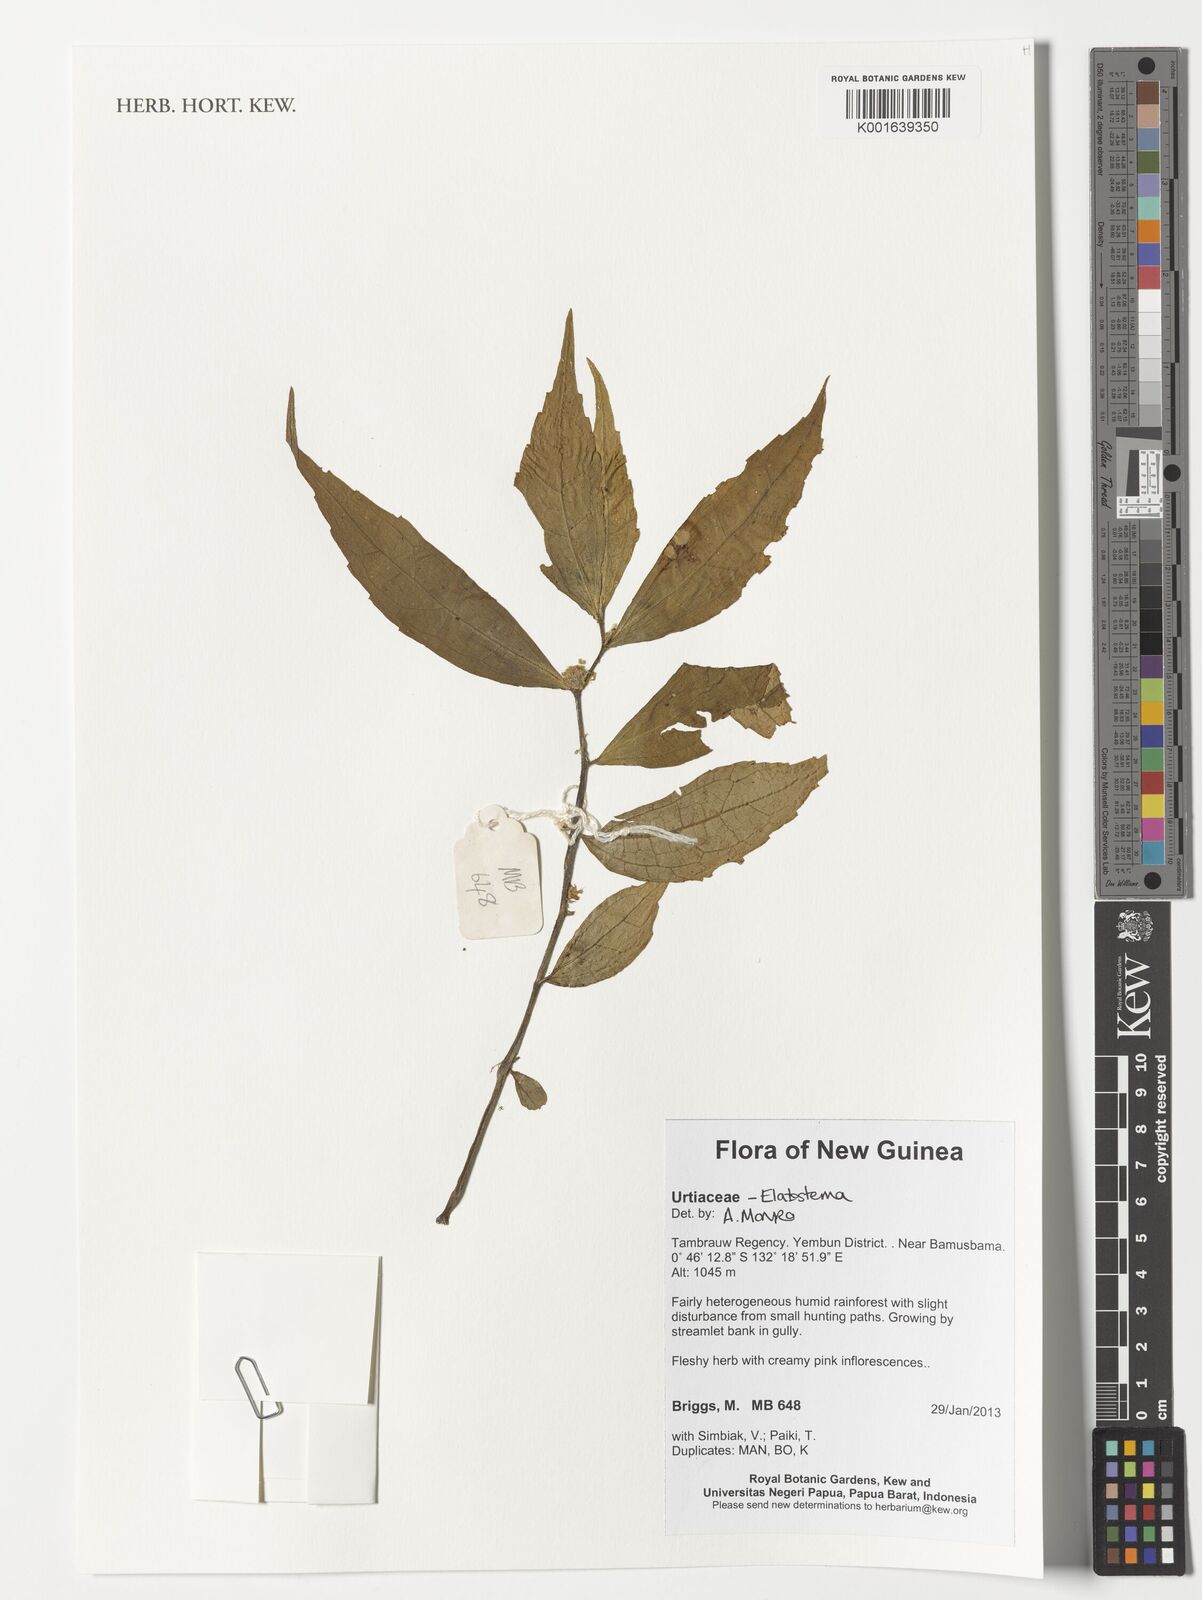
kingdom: Plantae
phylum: Tracheophyta
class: Magnoliopsida
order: Rosales
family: Urticaceae
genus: Elatostema
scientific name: Elatostema
